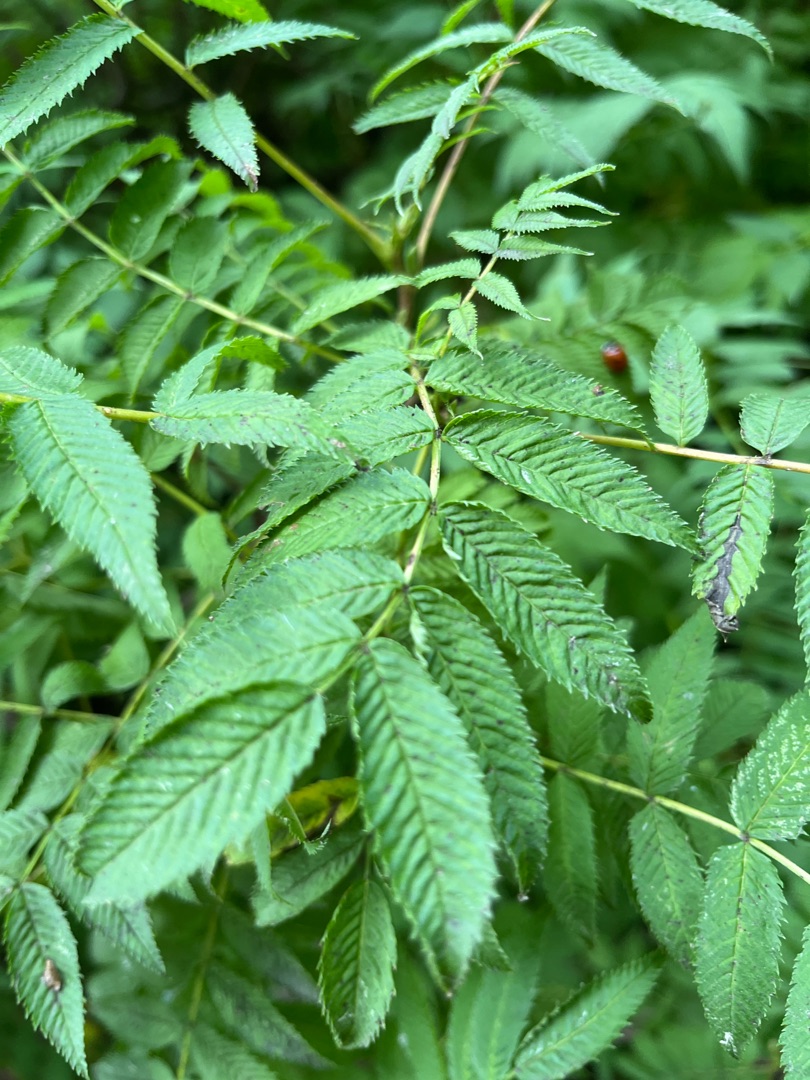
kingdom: Plantae
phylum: Tracheophyta
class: Magnoliopsida
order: Rosales
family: Rosaceae
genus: Sorbaria
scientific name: Sorbaria tomentosa
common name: Kashmir-tusindtop
